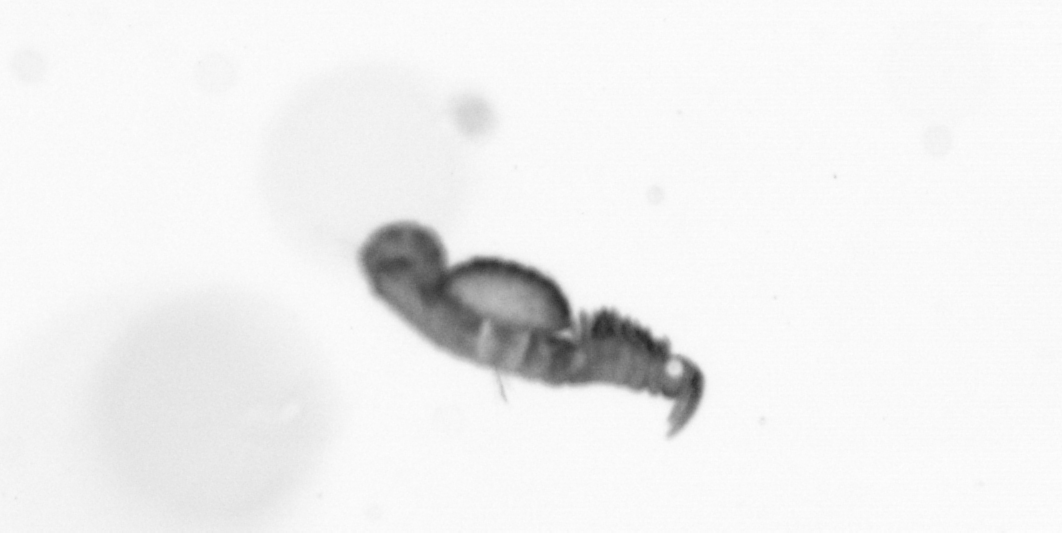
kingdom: Animalia
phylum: Annelida
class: Polychaeta
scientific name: Polychaeta
